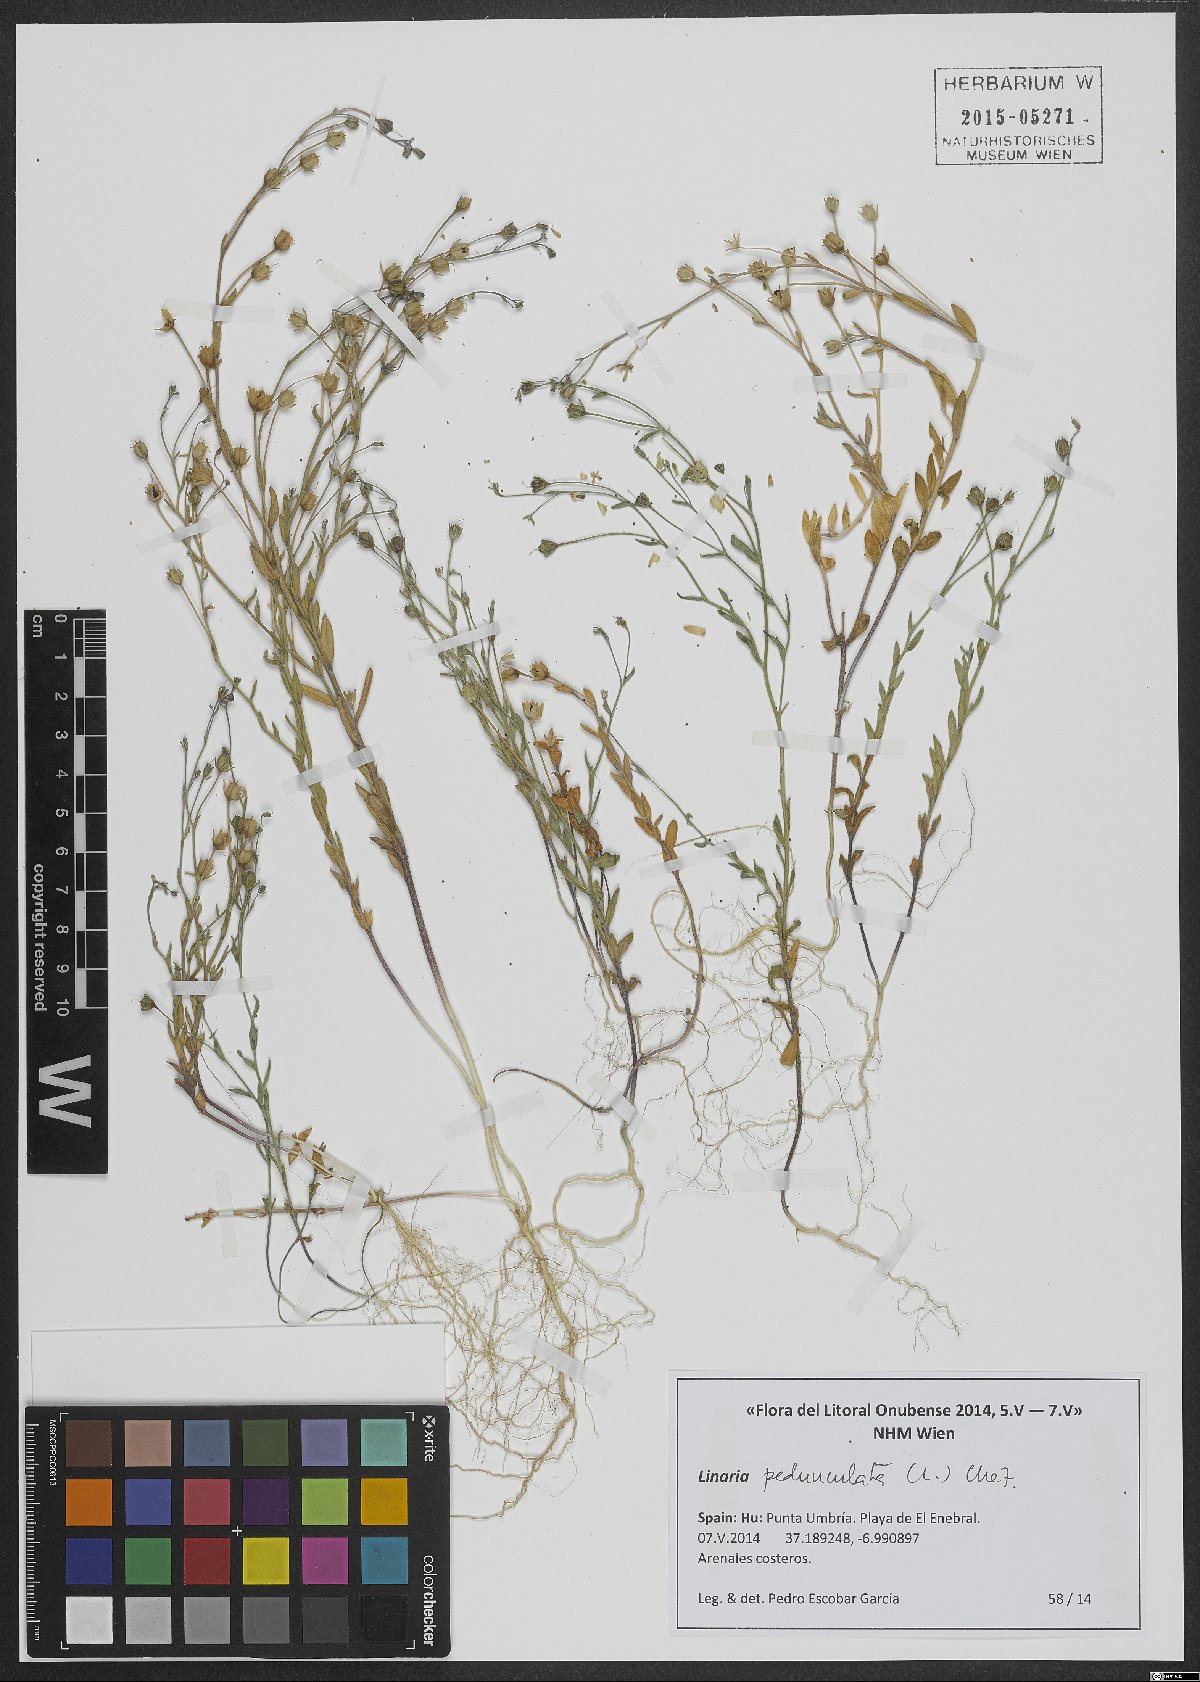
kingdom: Plantae
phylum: Tracheophyta
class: Magnoliopsida
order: Lamiales
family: Plantaginaceae
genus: Linaria
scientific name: Linaria pedunculata
